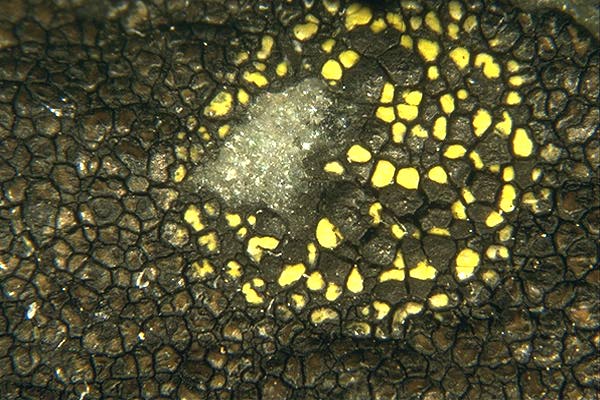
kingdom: Fungi
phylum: Ascomycota
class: Lecanoromycetes
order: Rhizocarpales
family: Rhizocarpaceae
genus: Rhizocarpon
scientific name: Rhizocarpon pusillum
